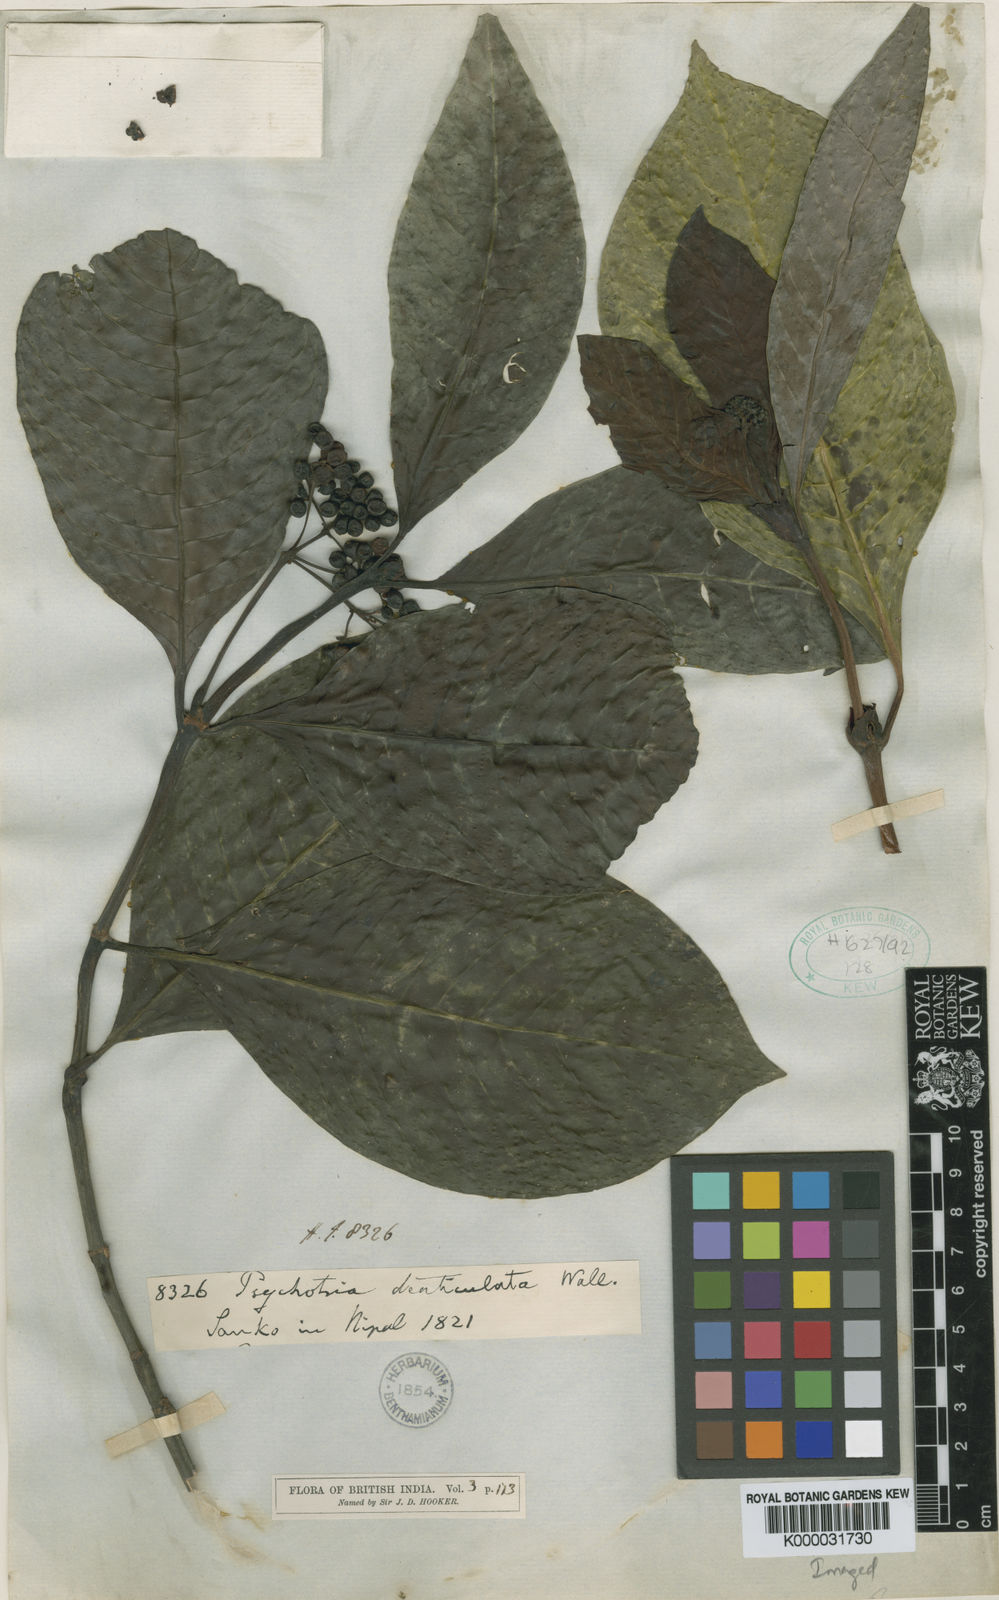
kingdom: Plantae
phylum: Tracheophyta
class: Magnoliopsida
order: Gentianales
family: Rubiaceae
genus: Psychotria
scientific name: Psychotria denticulata
